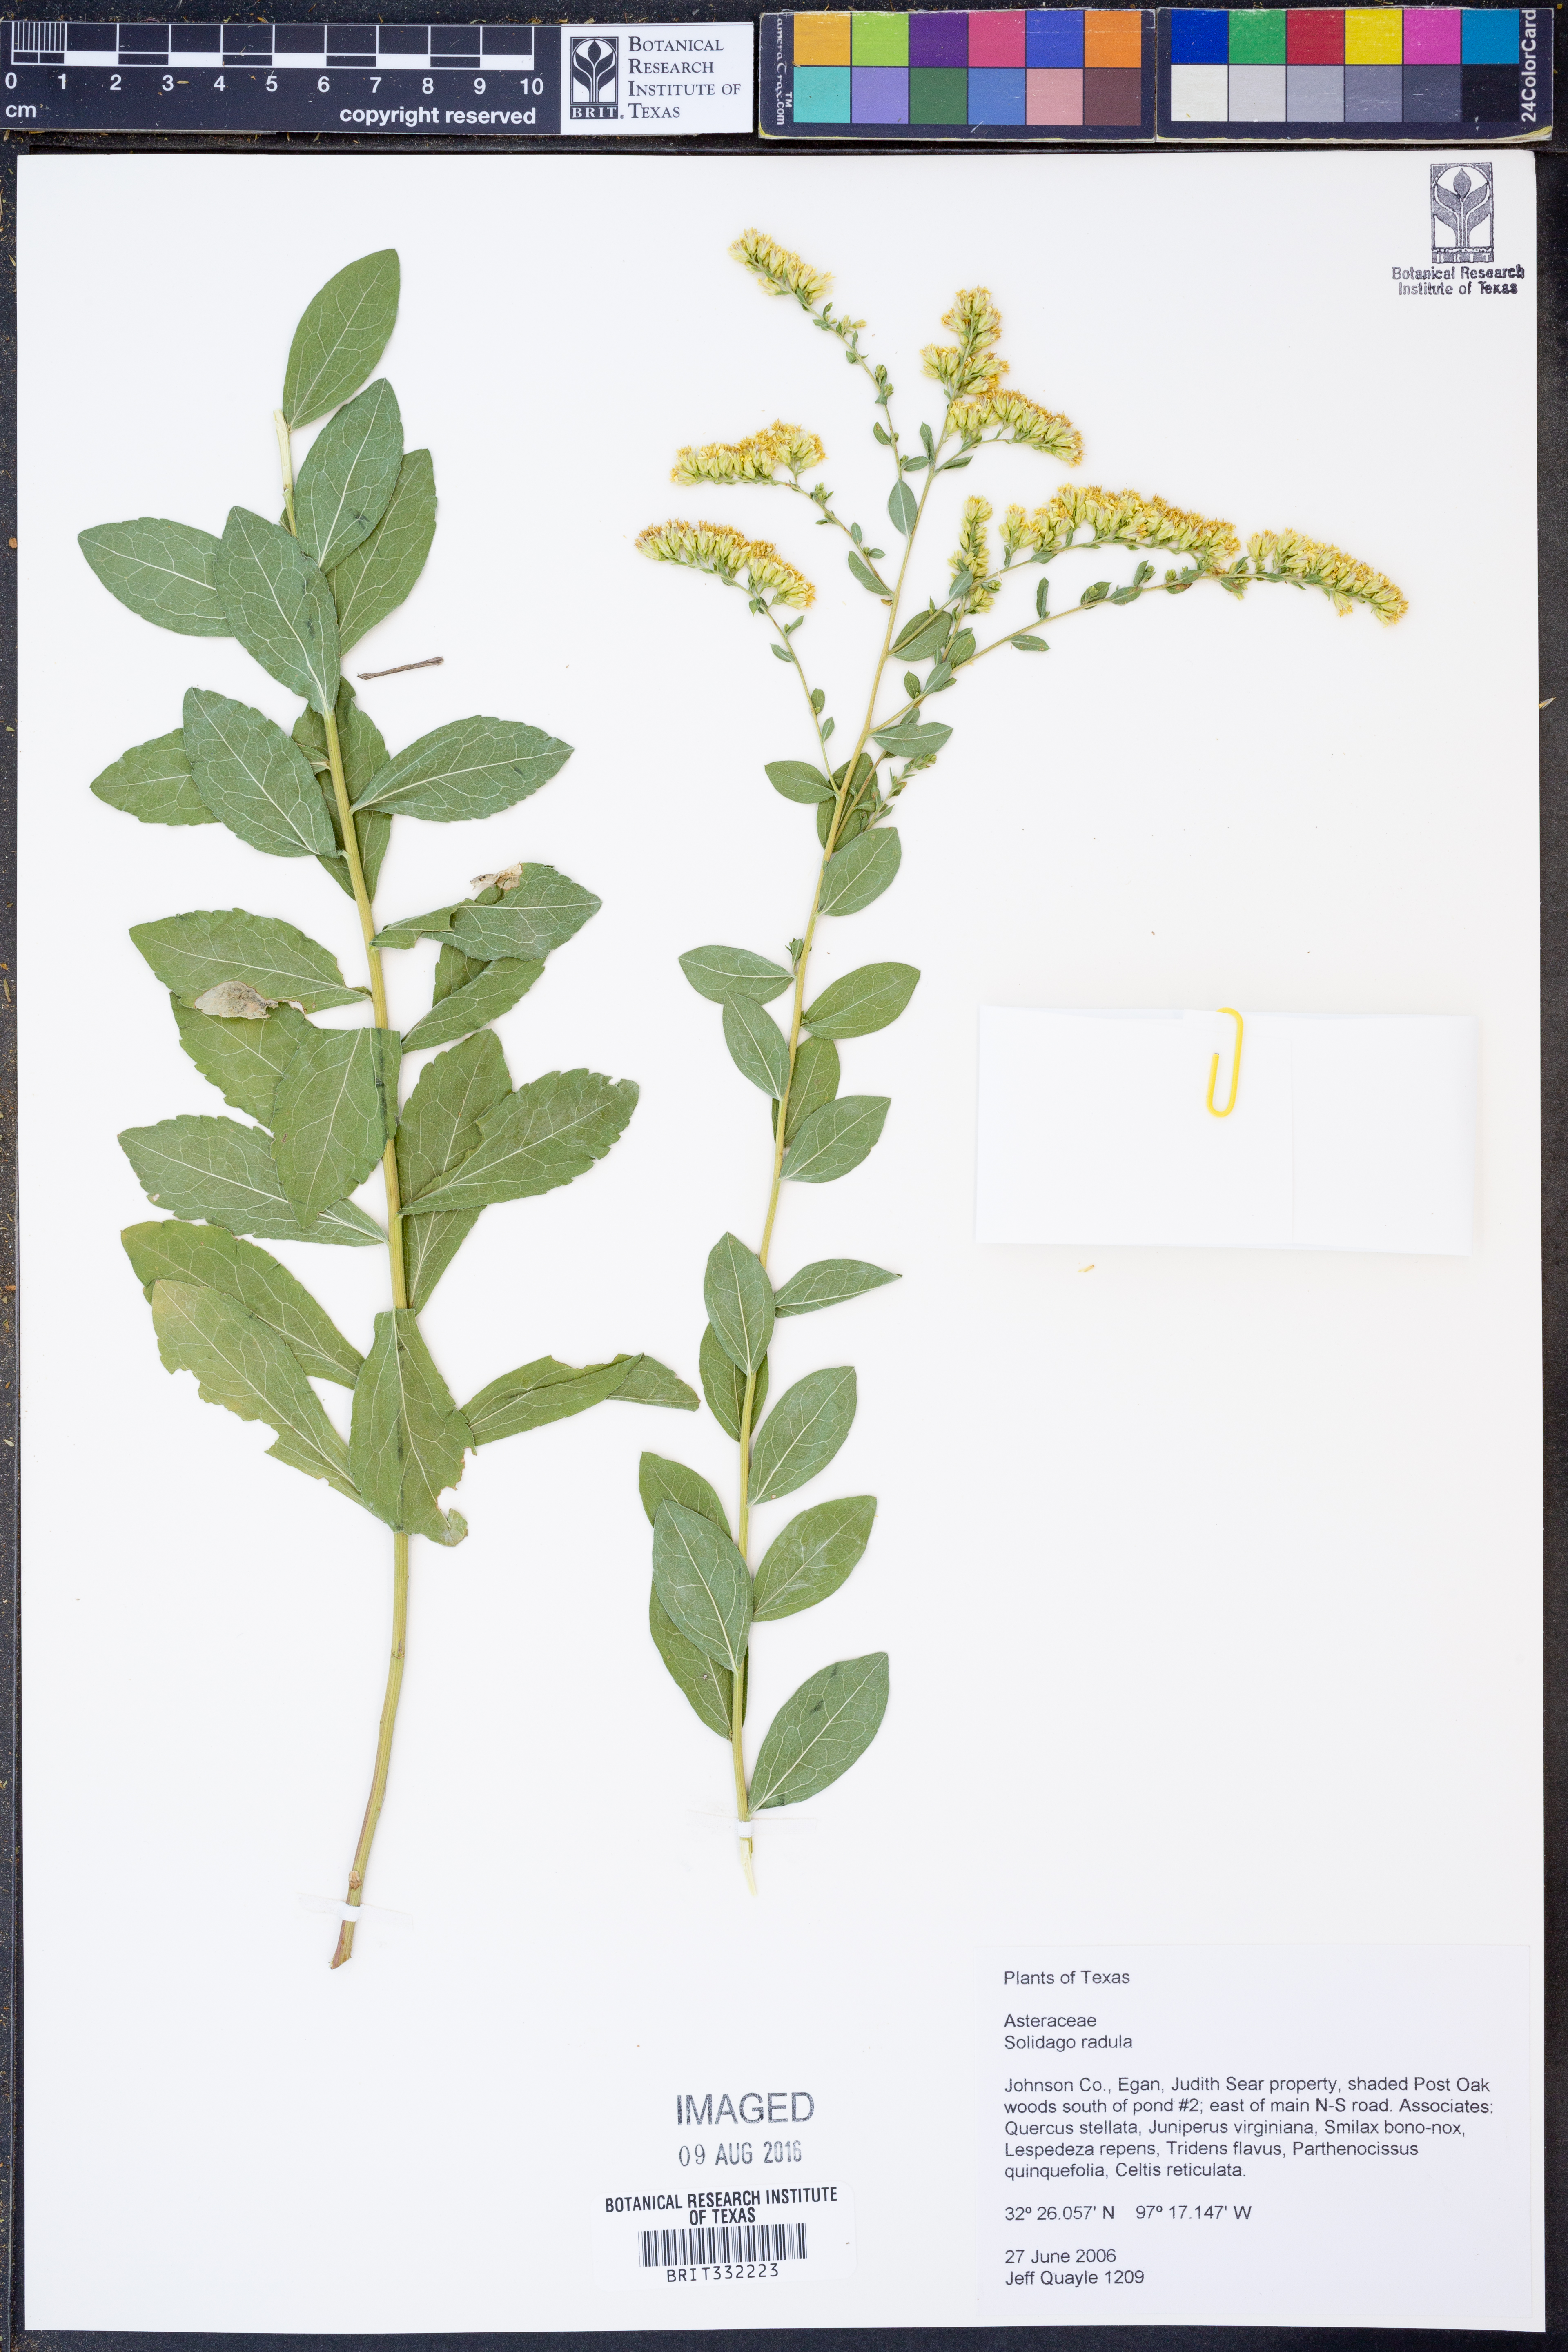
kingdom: Plantae
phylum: Tracheophyta
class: Magnoliopsida
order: Asterales
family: Asteraceae
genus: Solidago
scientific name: Solidago radula
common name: Western rough goldenrod
